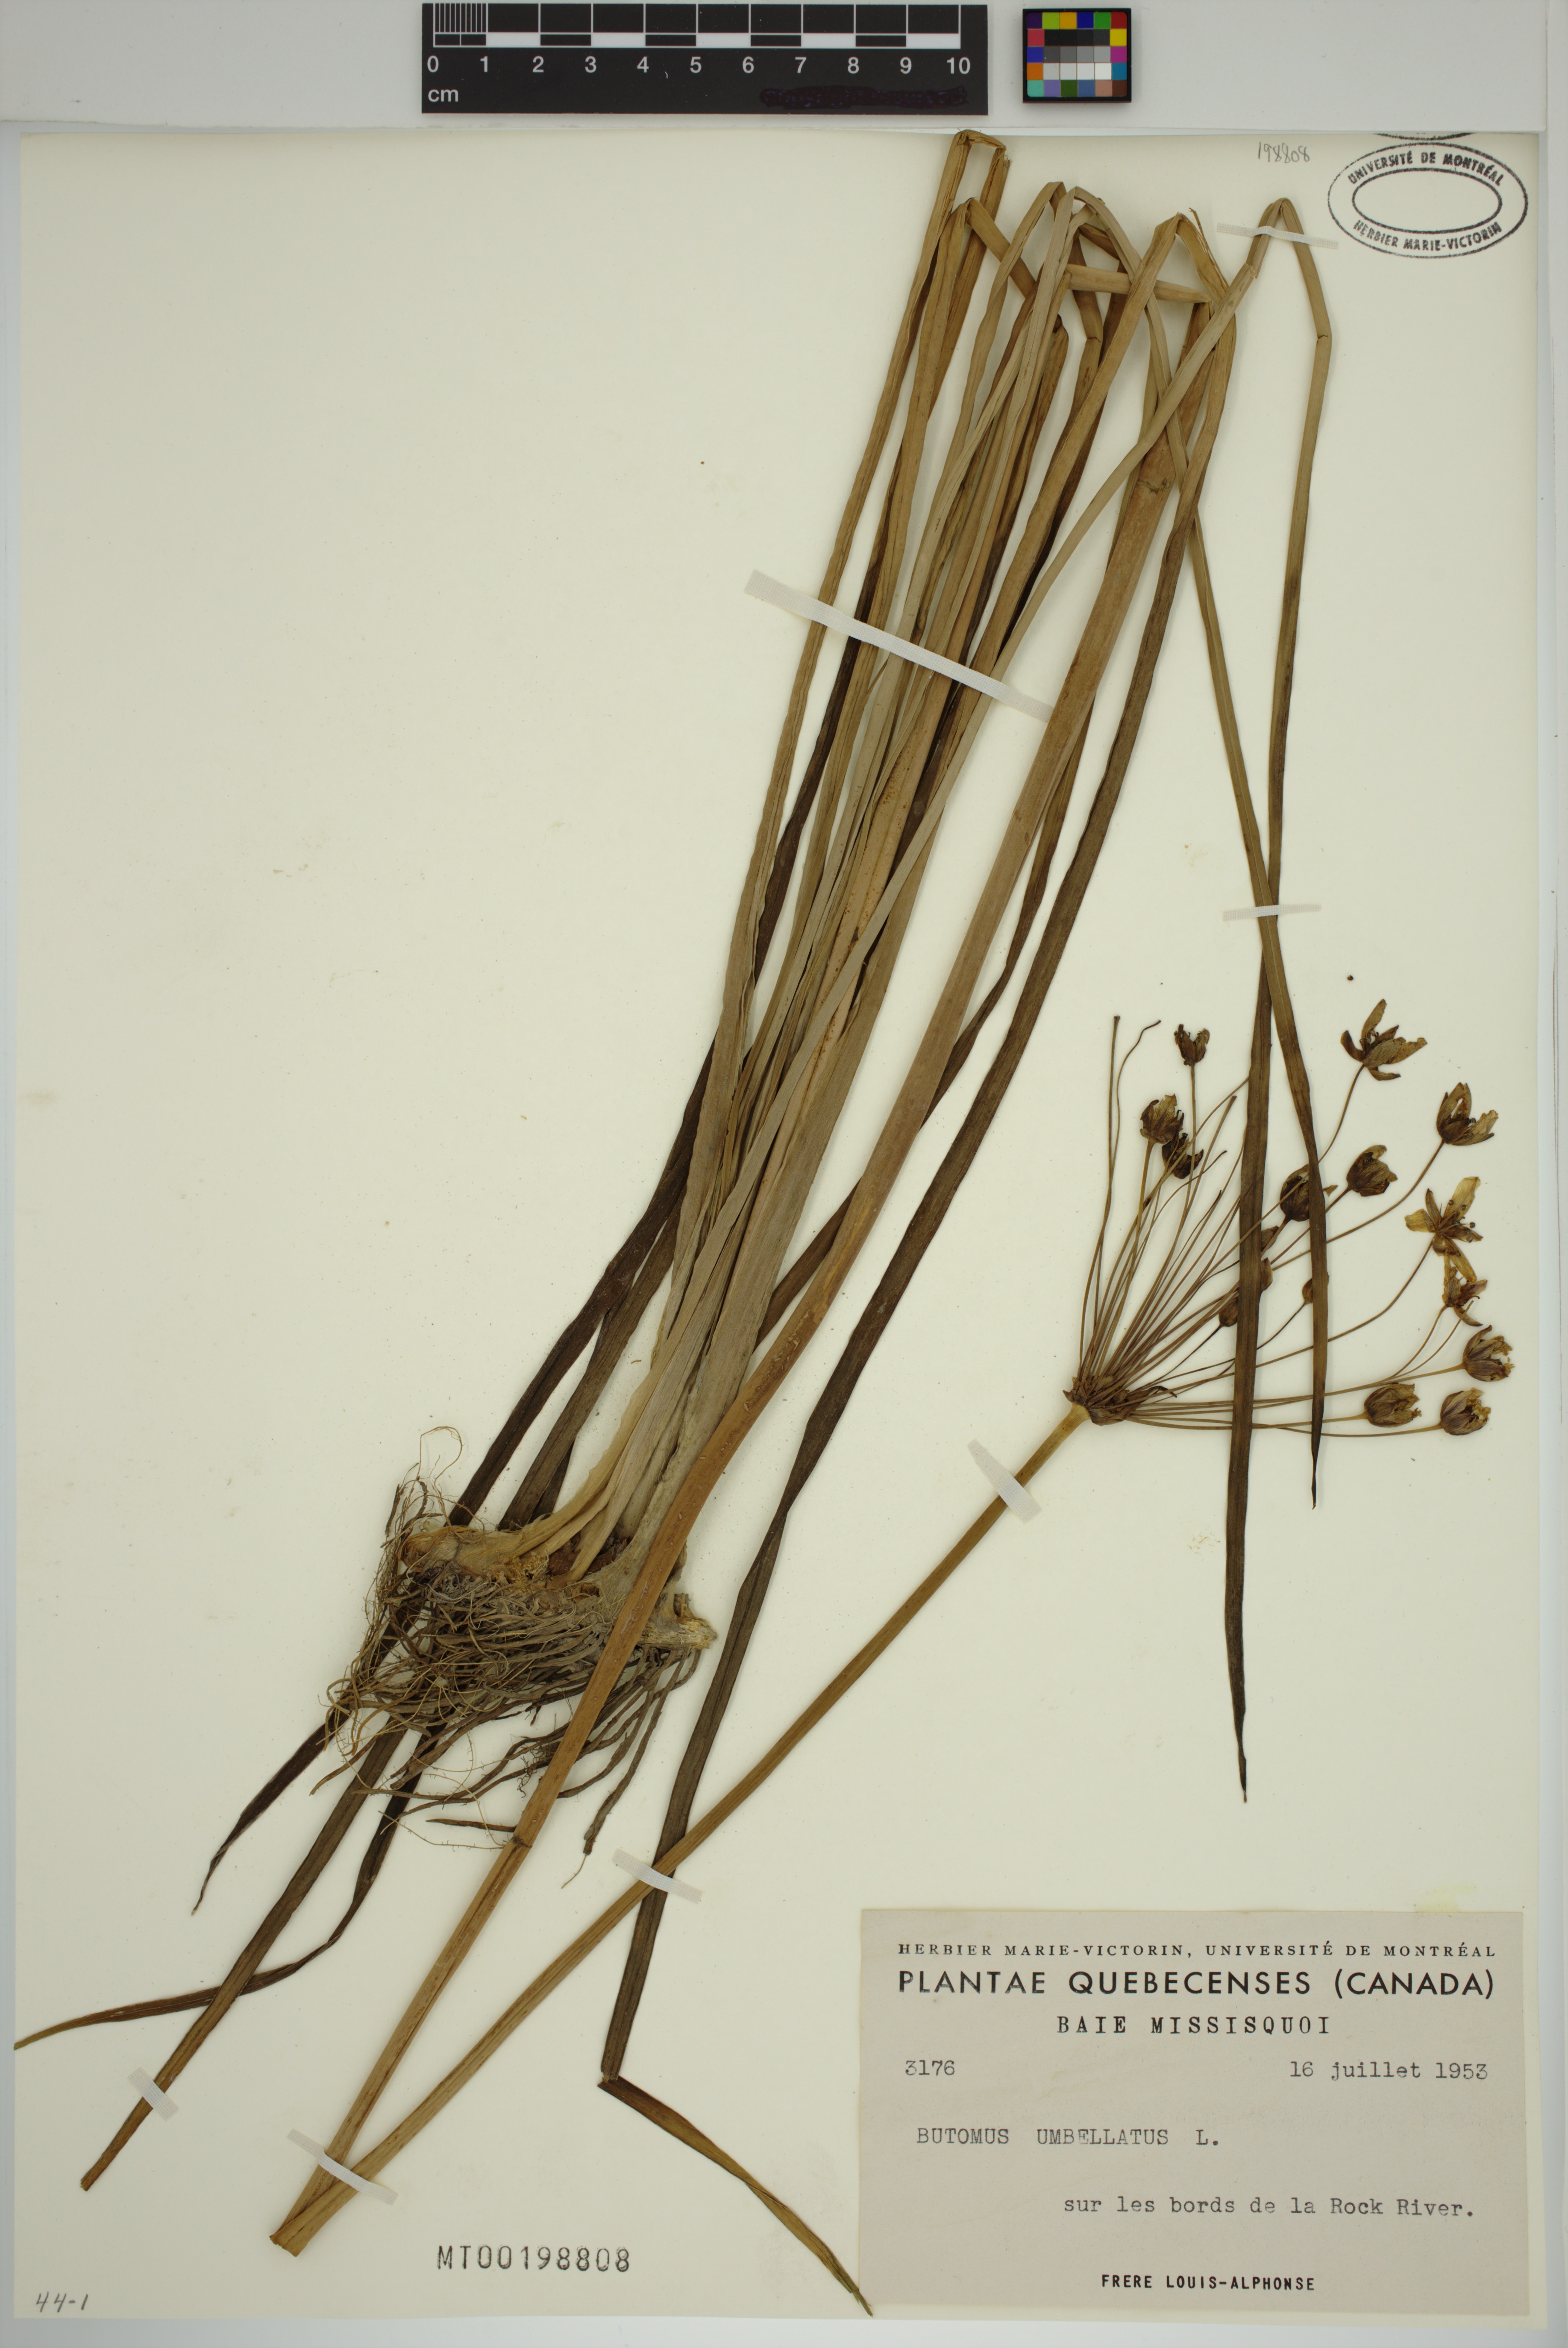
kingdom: Plantae
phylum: Tracheophyta
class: Liliopsida
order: Alismatales
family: Butomaceae
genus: Butomus
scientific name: Butomus umbellatus
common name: Flowering-rush
